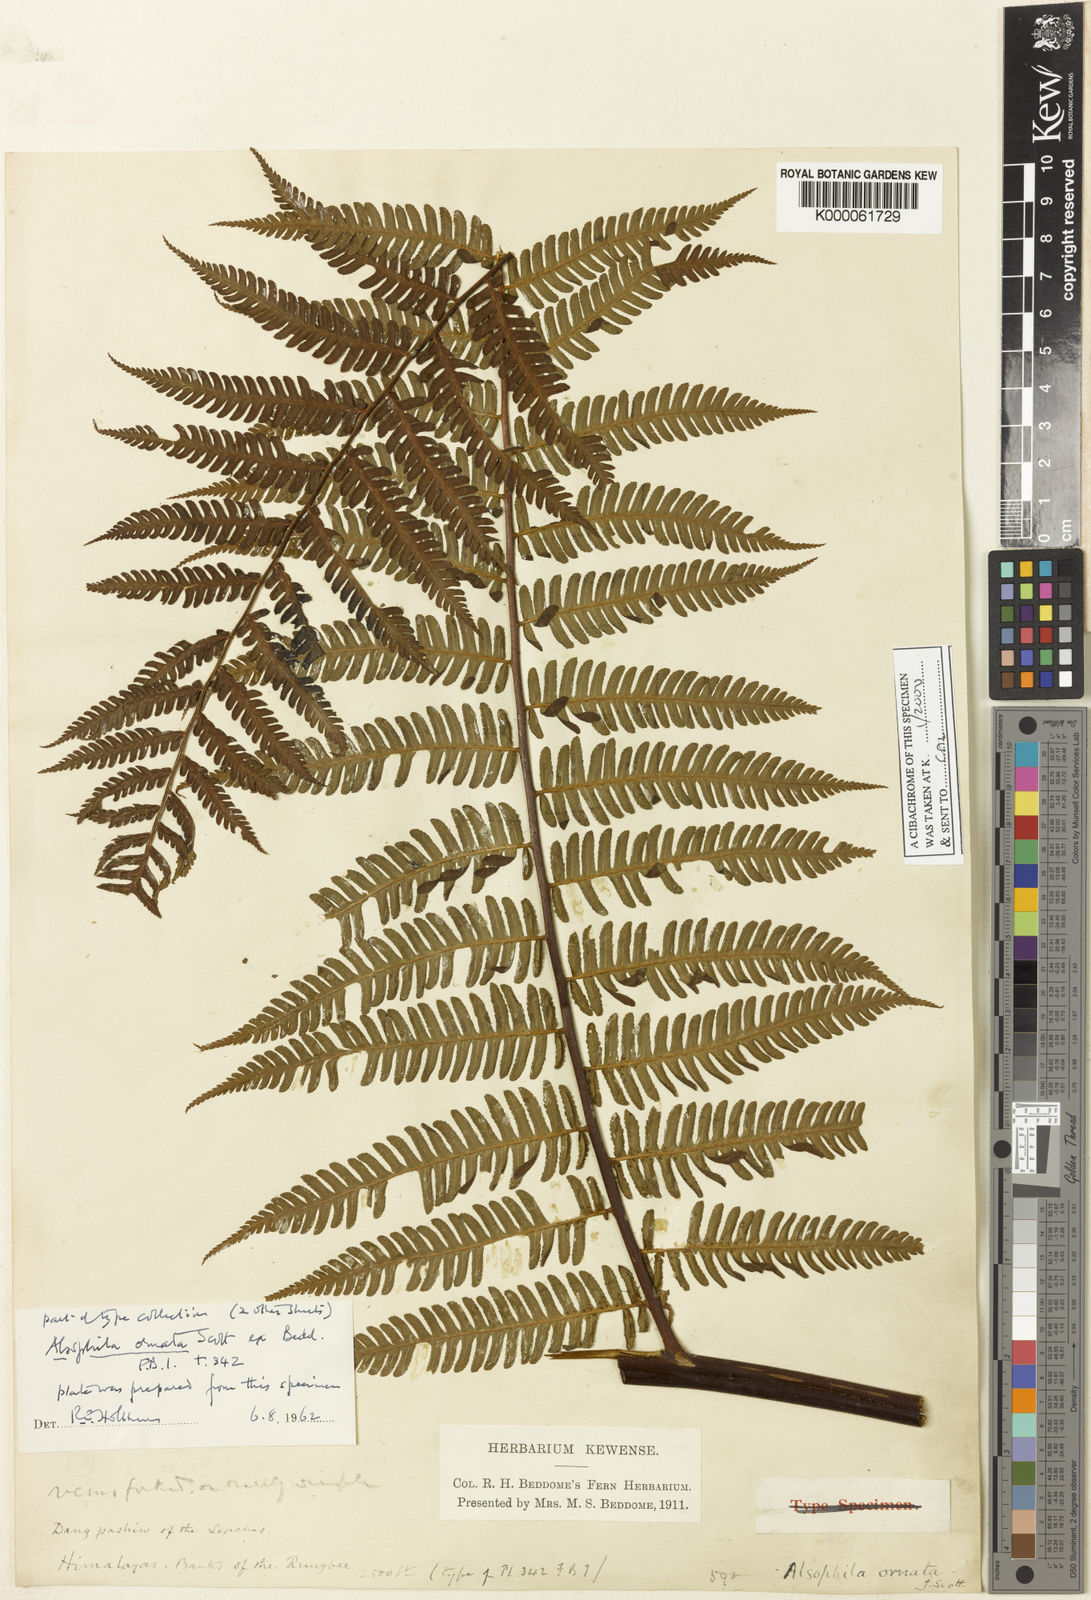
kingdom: Plantae
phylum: Tracheophyta
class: Polypodiopsida
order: Cyatheales
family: Cyatheaceae
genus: Gymnosphaera
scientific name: Gymnosphaera khasyana
